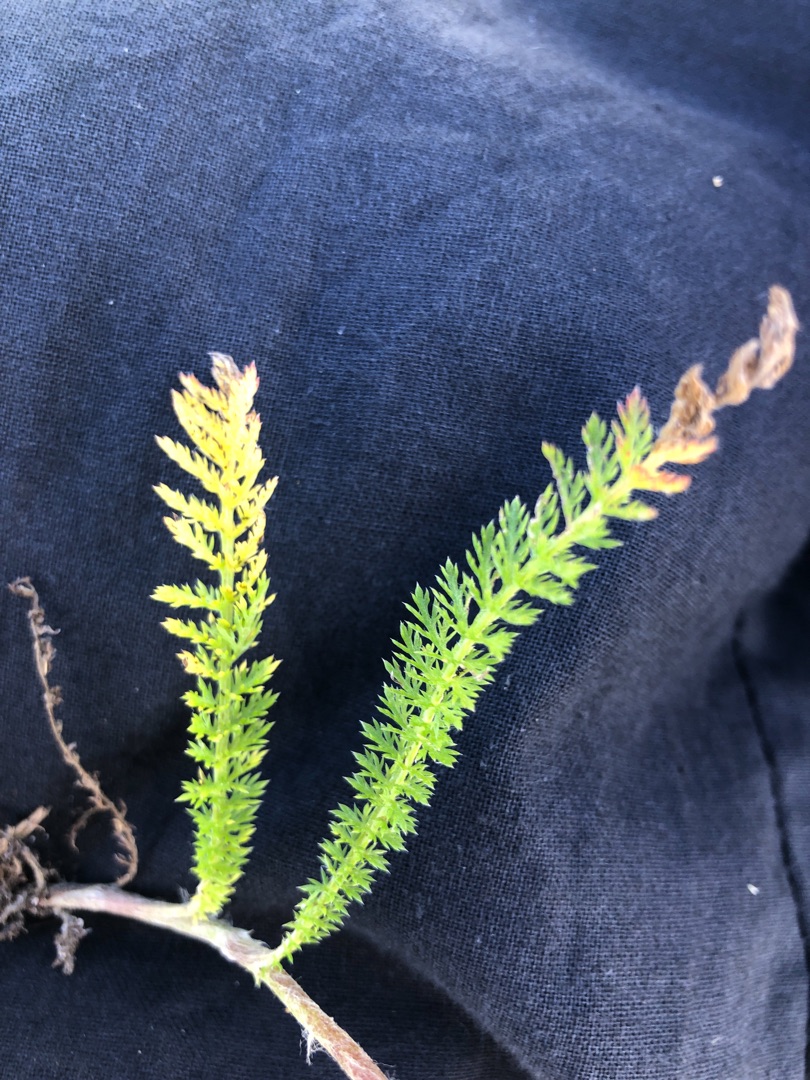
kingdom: Plantae
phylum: Tracheophyta
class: Magnoliopsida
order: Asterales
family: Asteraceae
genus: Achillea
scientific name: Achillea millefolium
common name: Almindelig røllike
